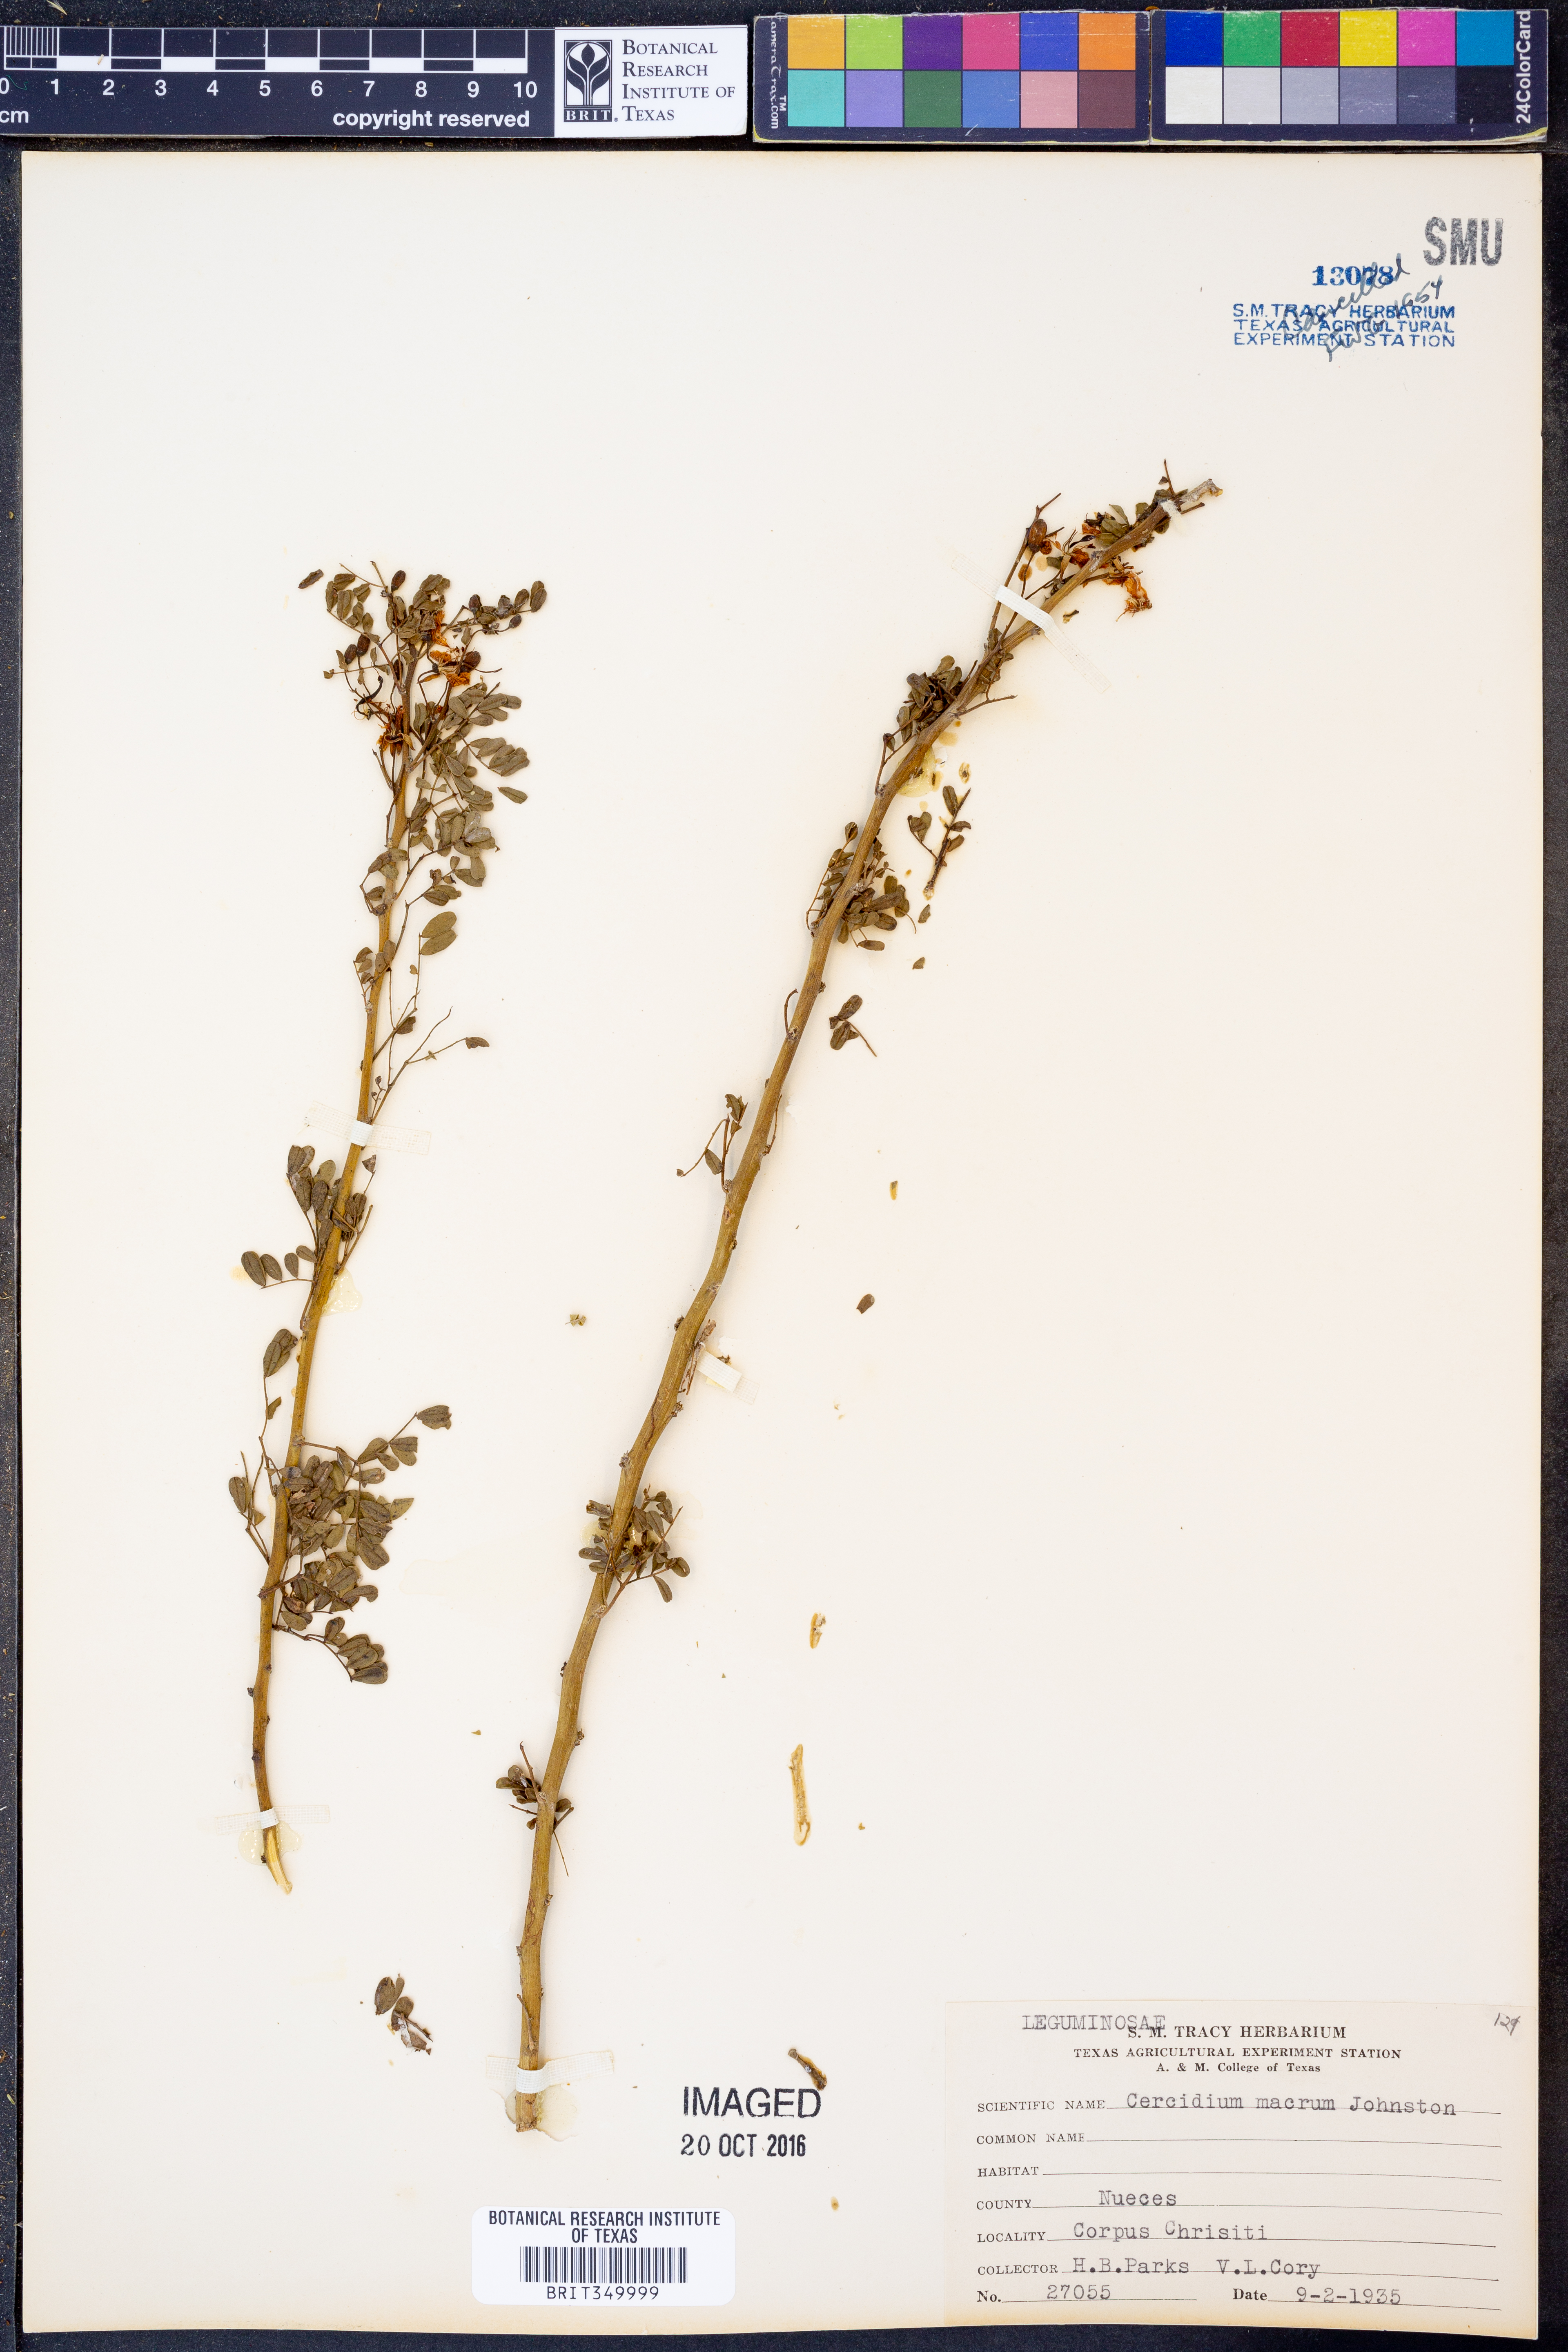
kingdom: Plantae
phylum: Tracheophyta
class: Magnoliopsida
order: Fabales
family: Fabaceae
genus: Parkinsonia
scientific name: Parkinsonia texana
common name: Texas paloverde
